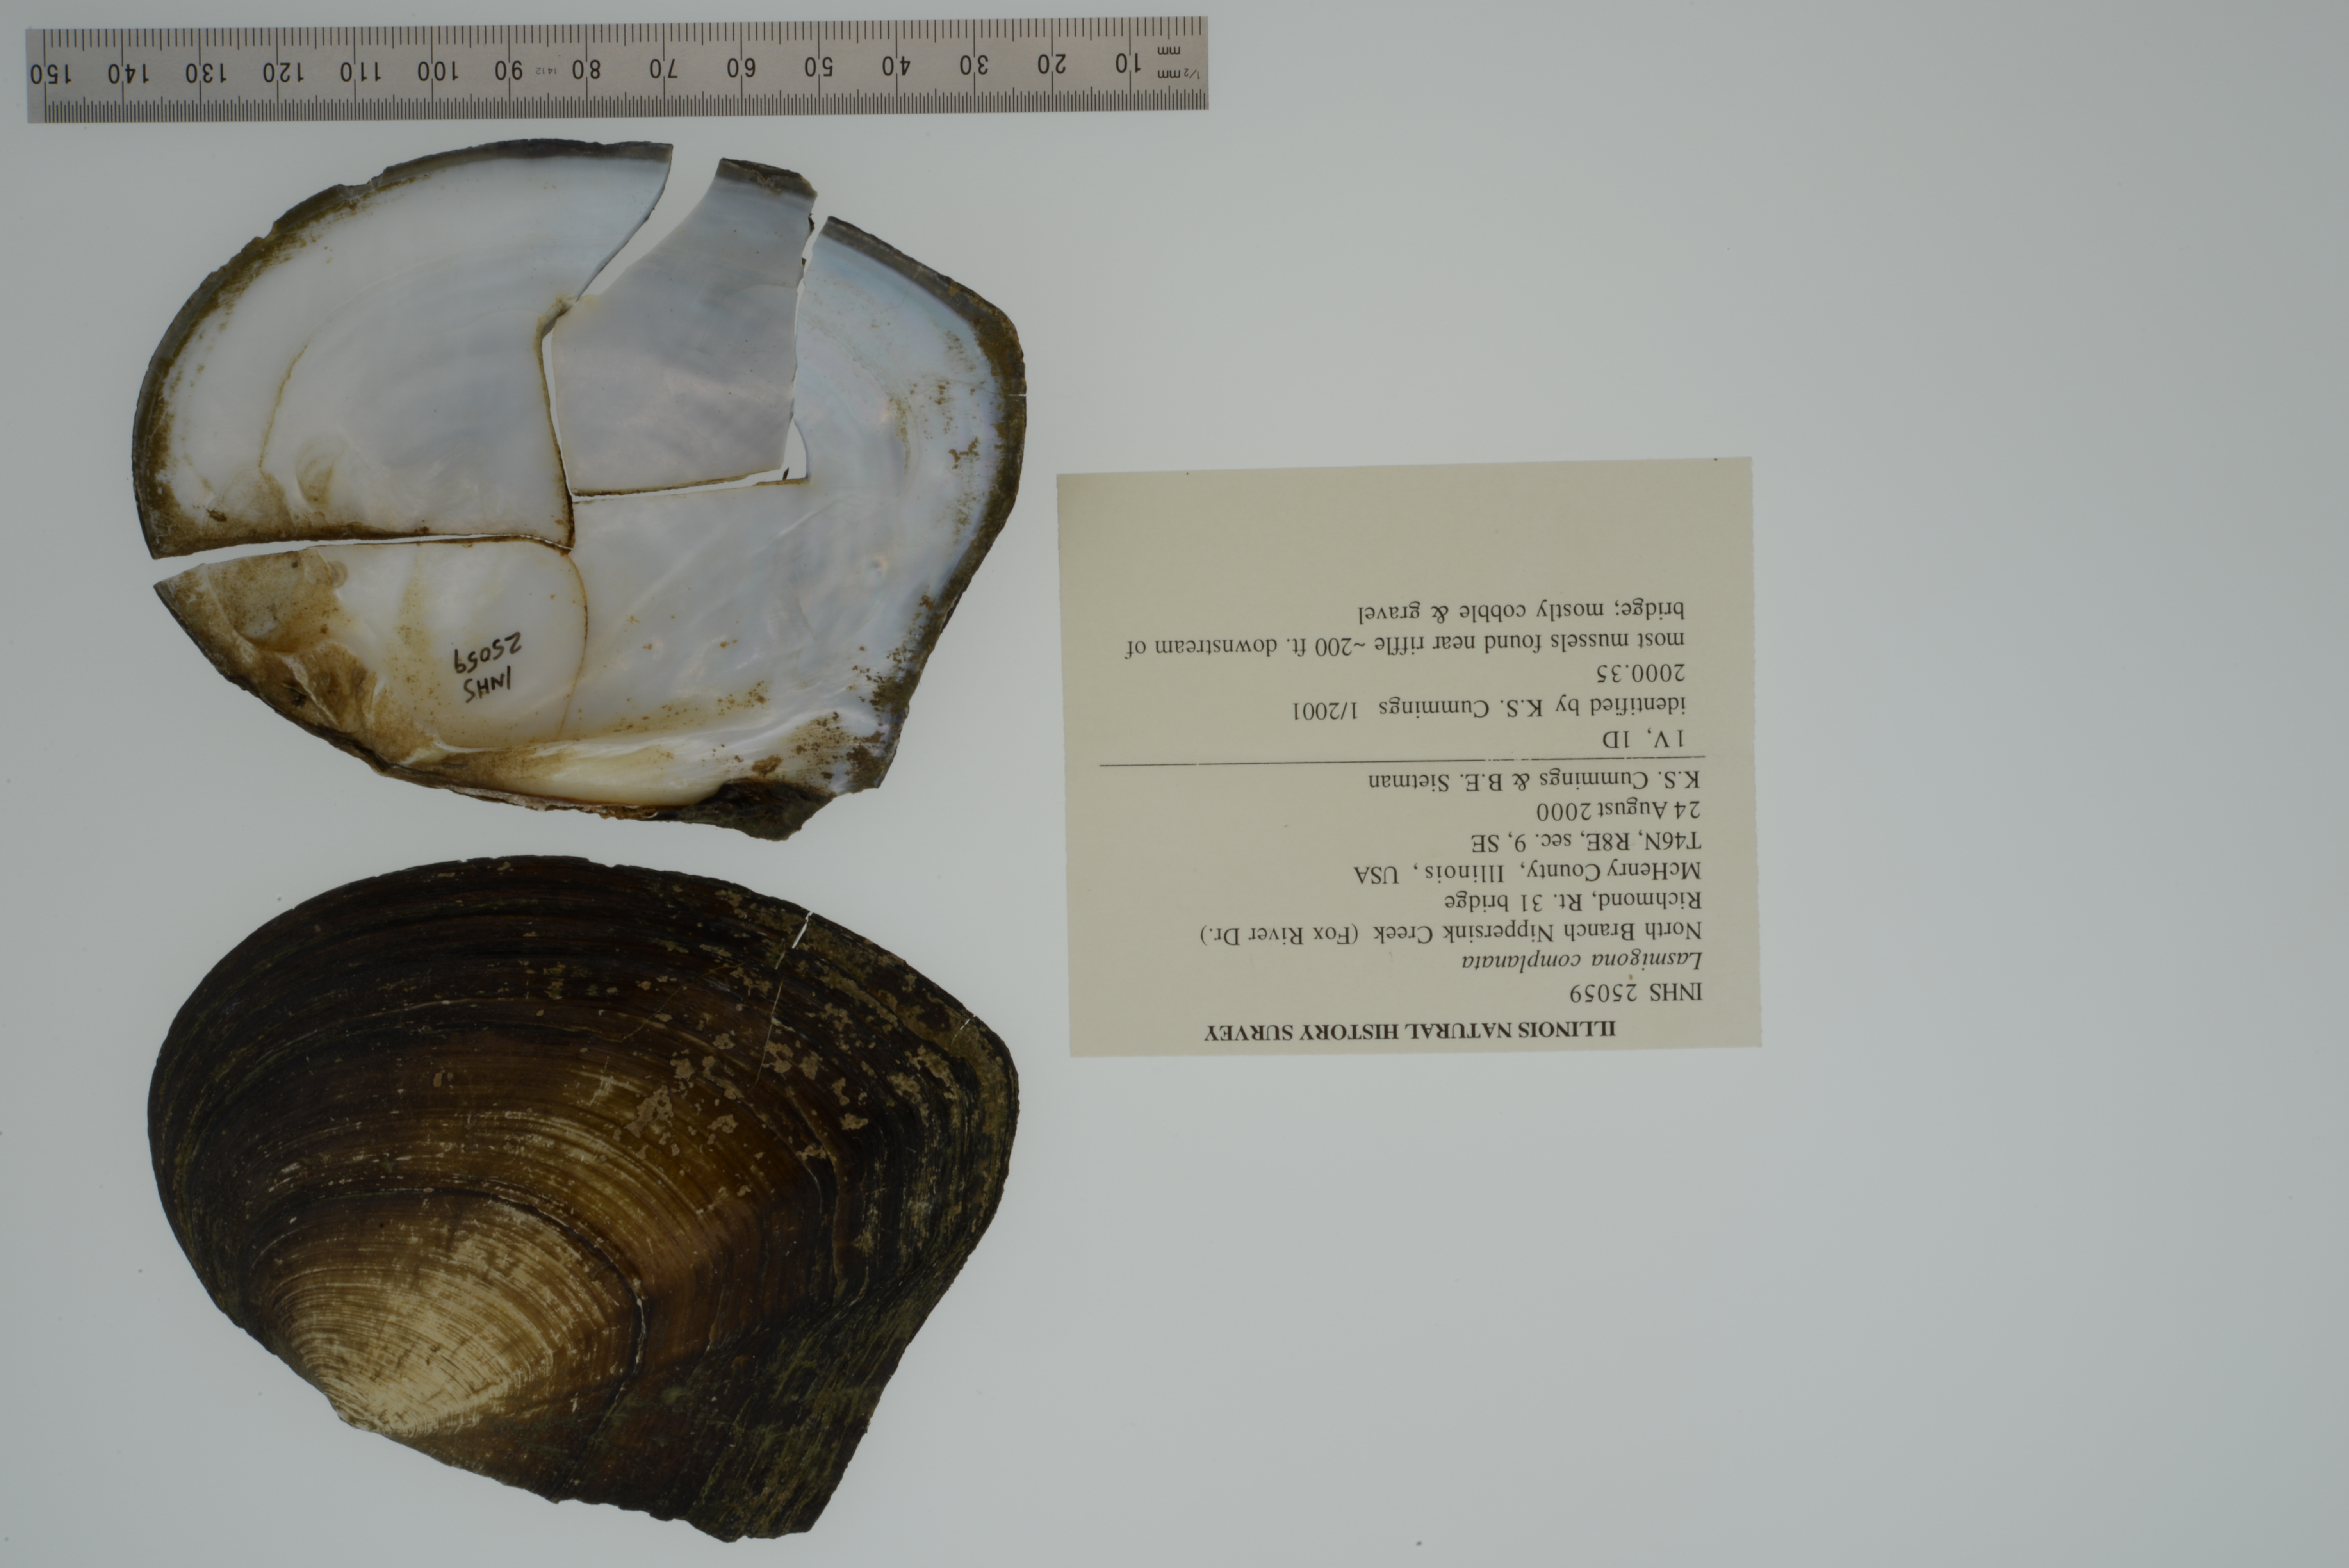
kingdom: Animalia
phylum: Mollusca
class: Bivalvia
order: Unionida
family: Unionidae
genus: Lasmigona
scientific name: Lasmigona complanata
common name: White heelsplitter
